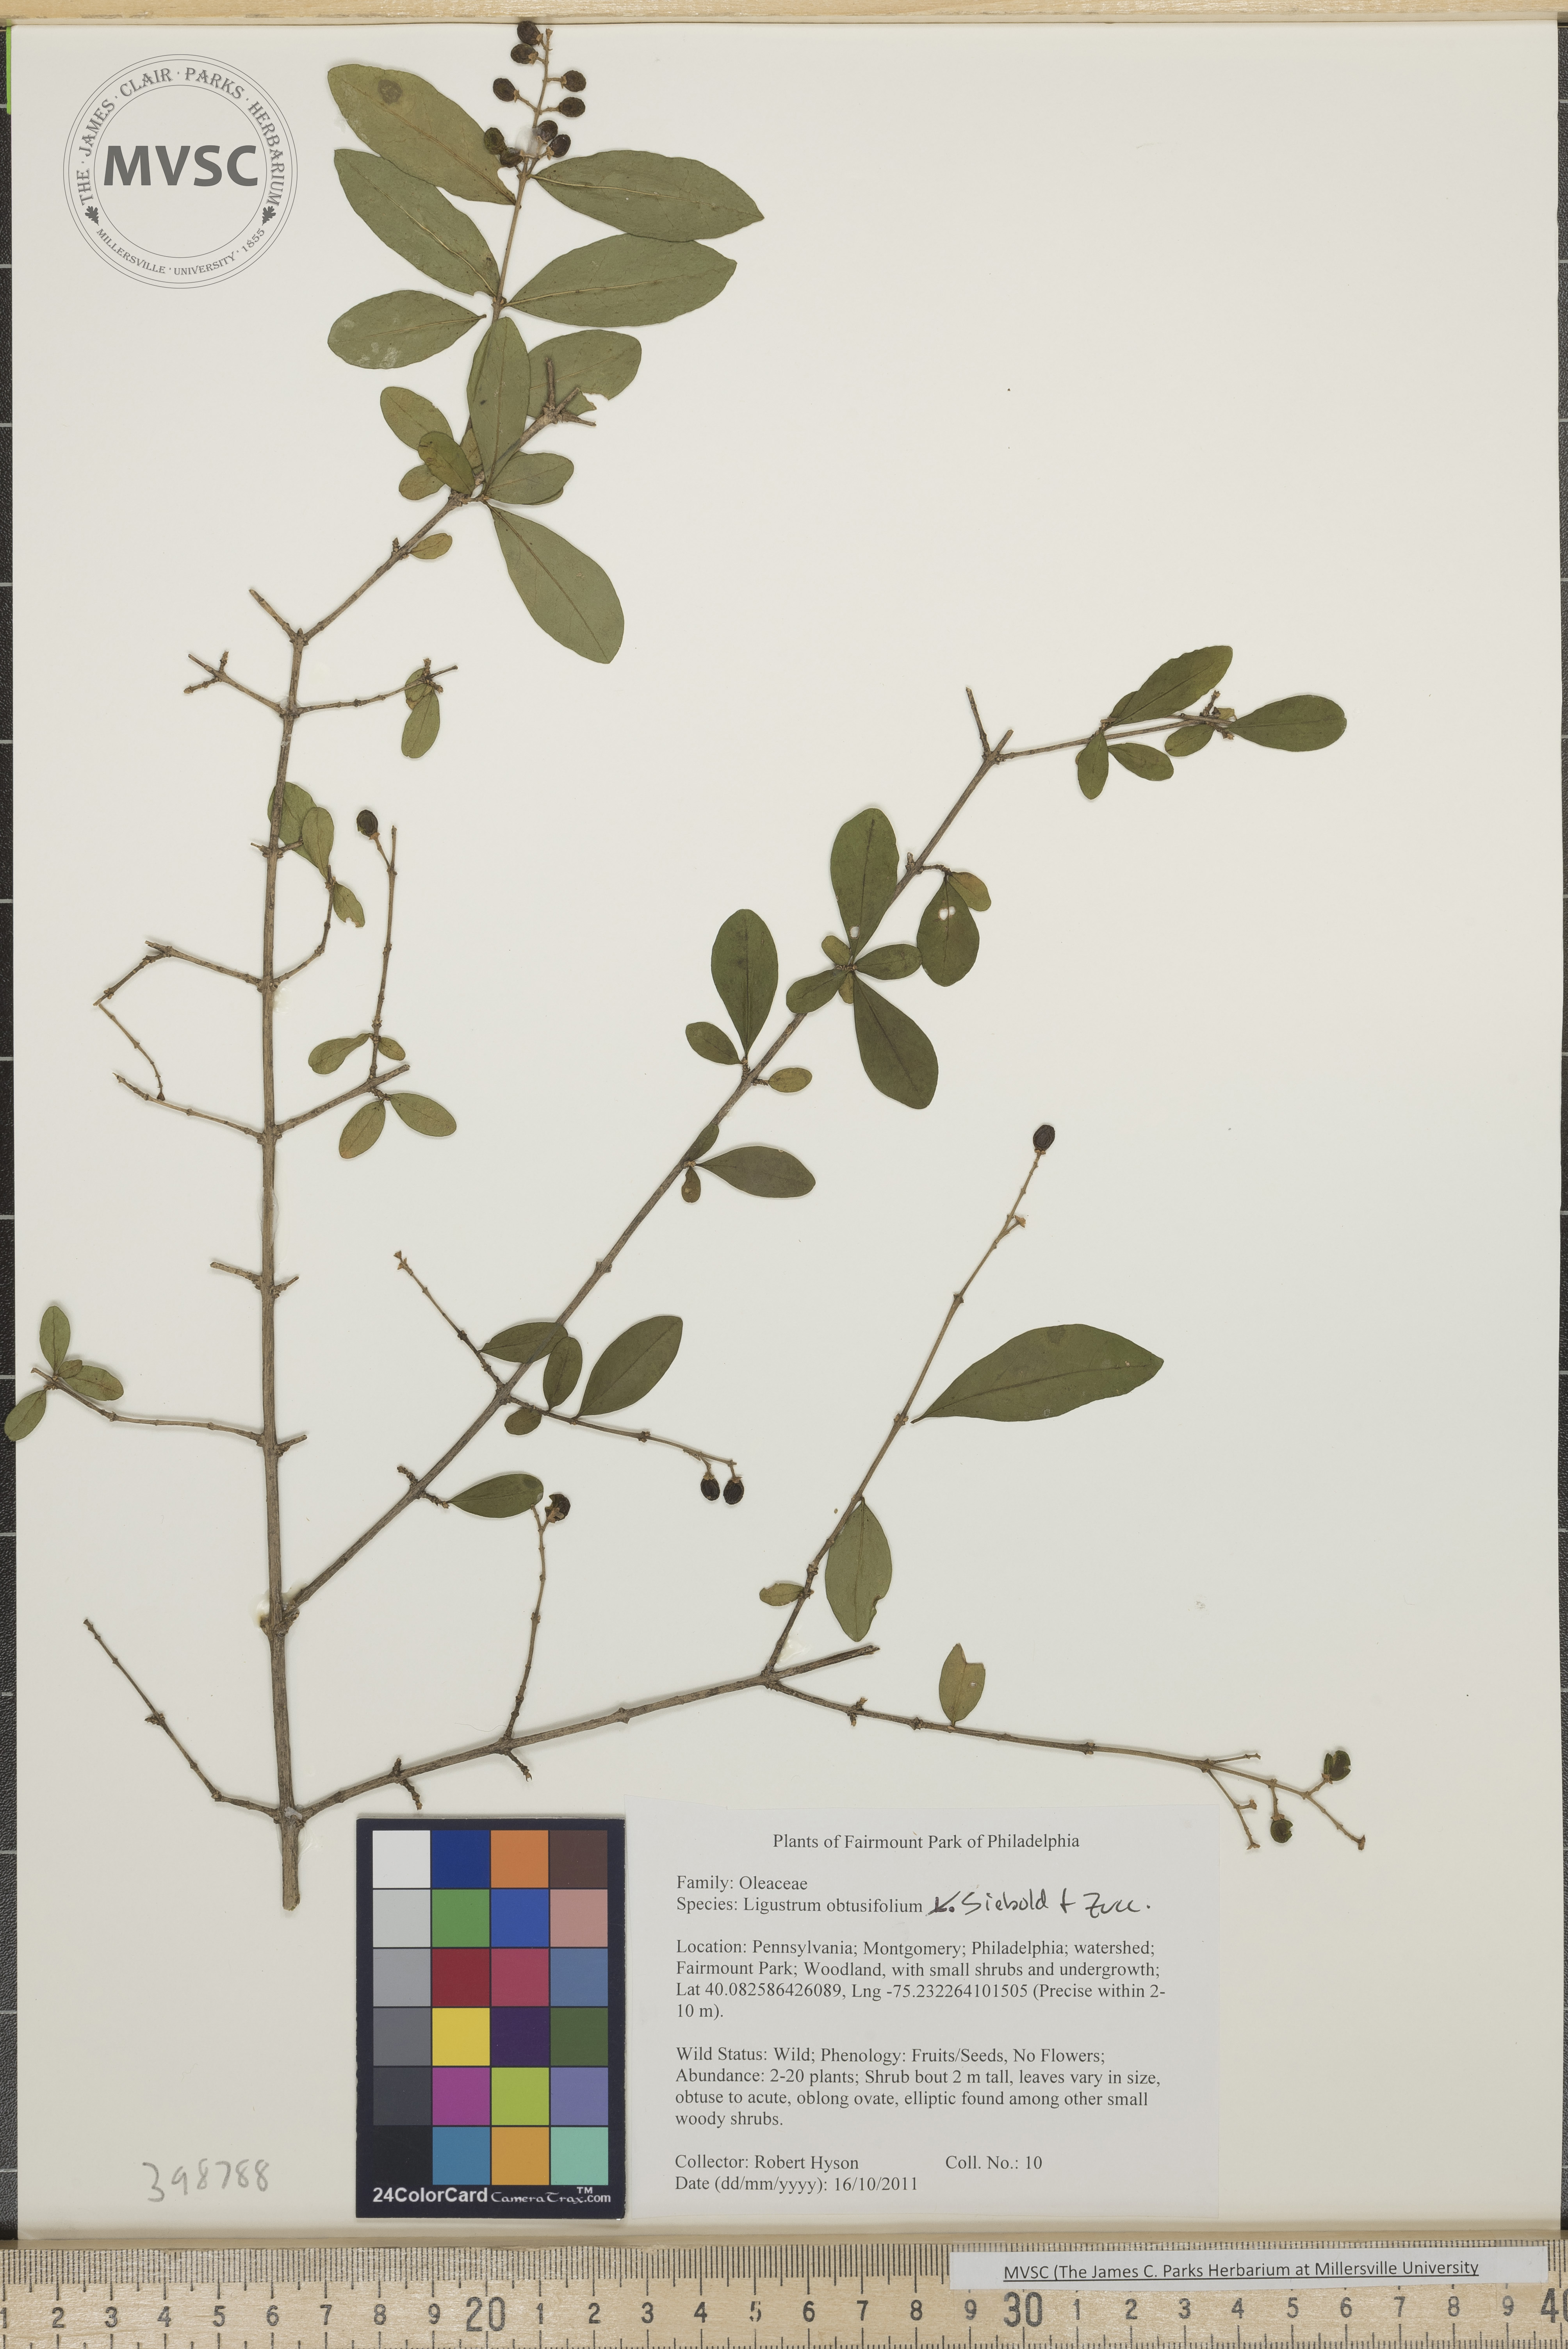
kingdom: Plantae
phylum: Tracheophyta
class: Magnoliopsida
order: Lamiales
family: Oleaceae
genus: Ligustrum
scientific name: Ligustrum obtusifolium
